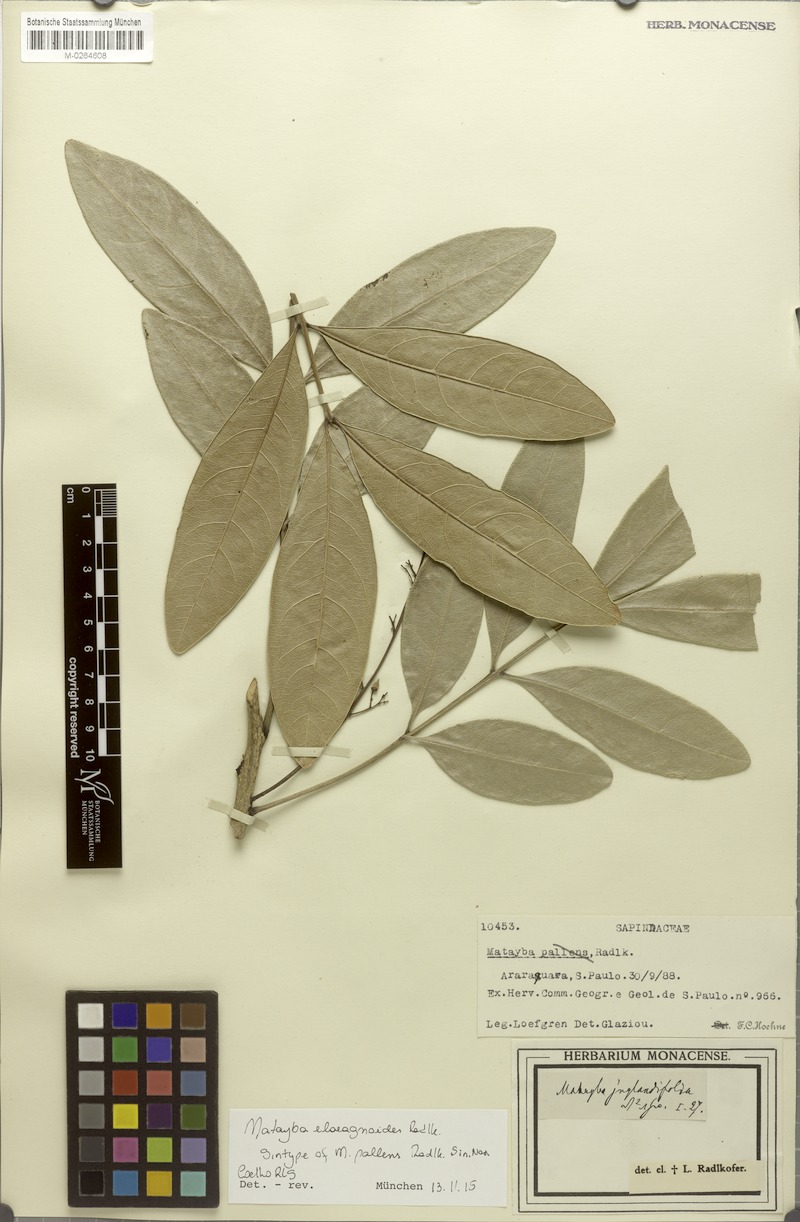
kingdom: Plantae
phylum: Tracheophyta
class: Magnoliopsida
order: Sapindales
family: Sapindaceae
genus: Matayba
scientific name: Matayba elaeagnoides
